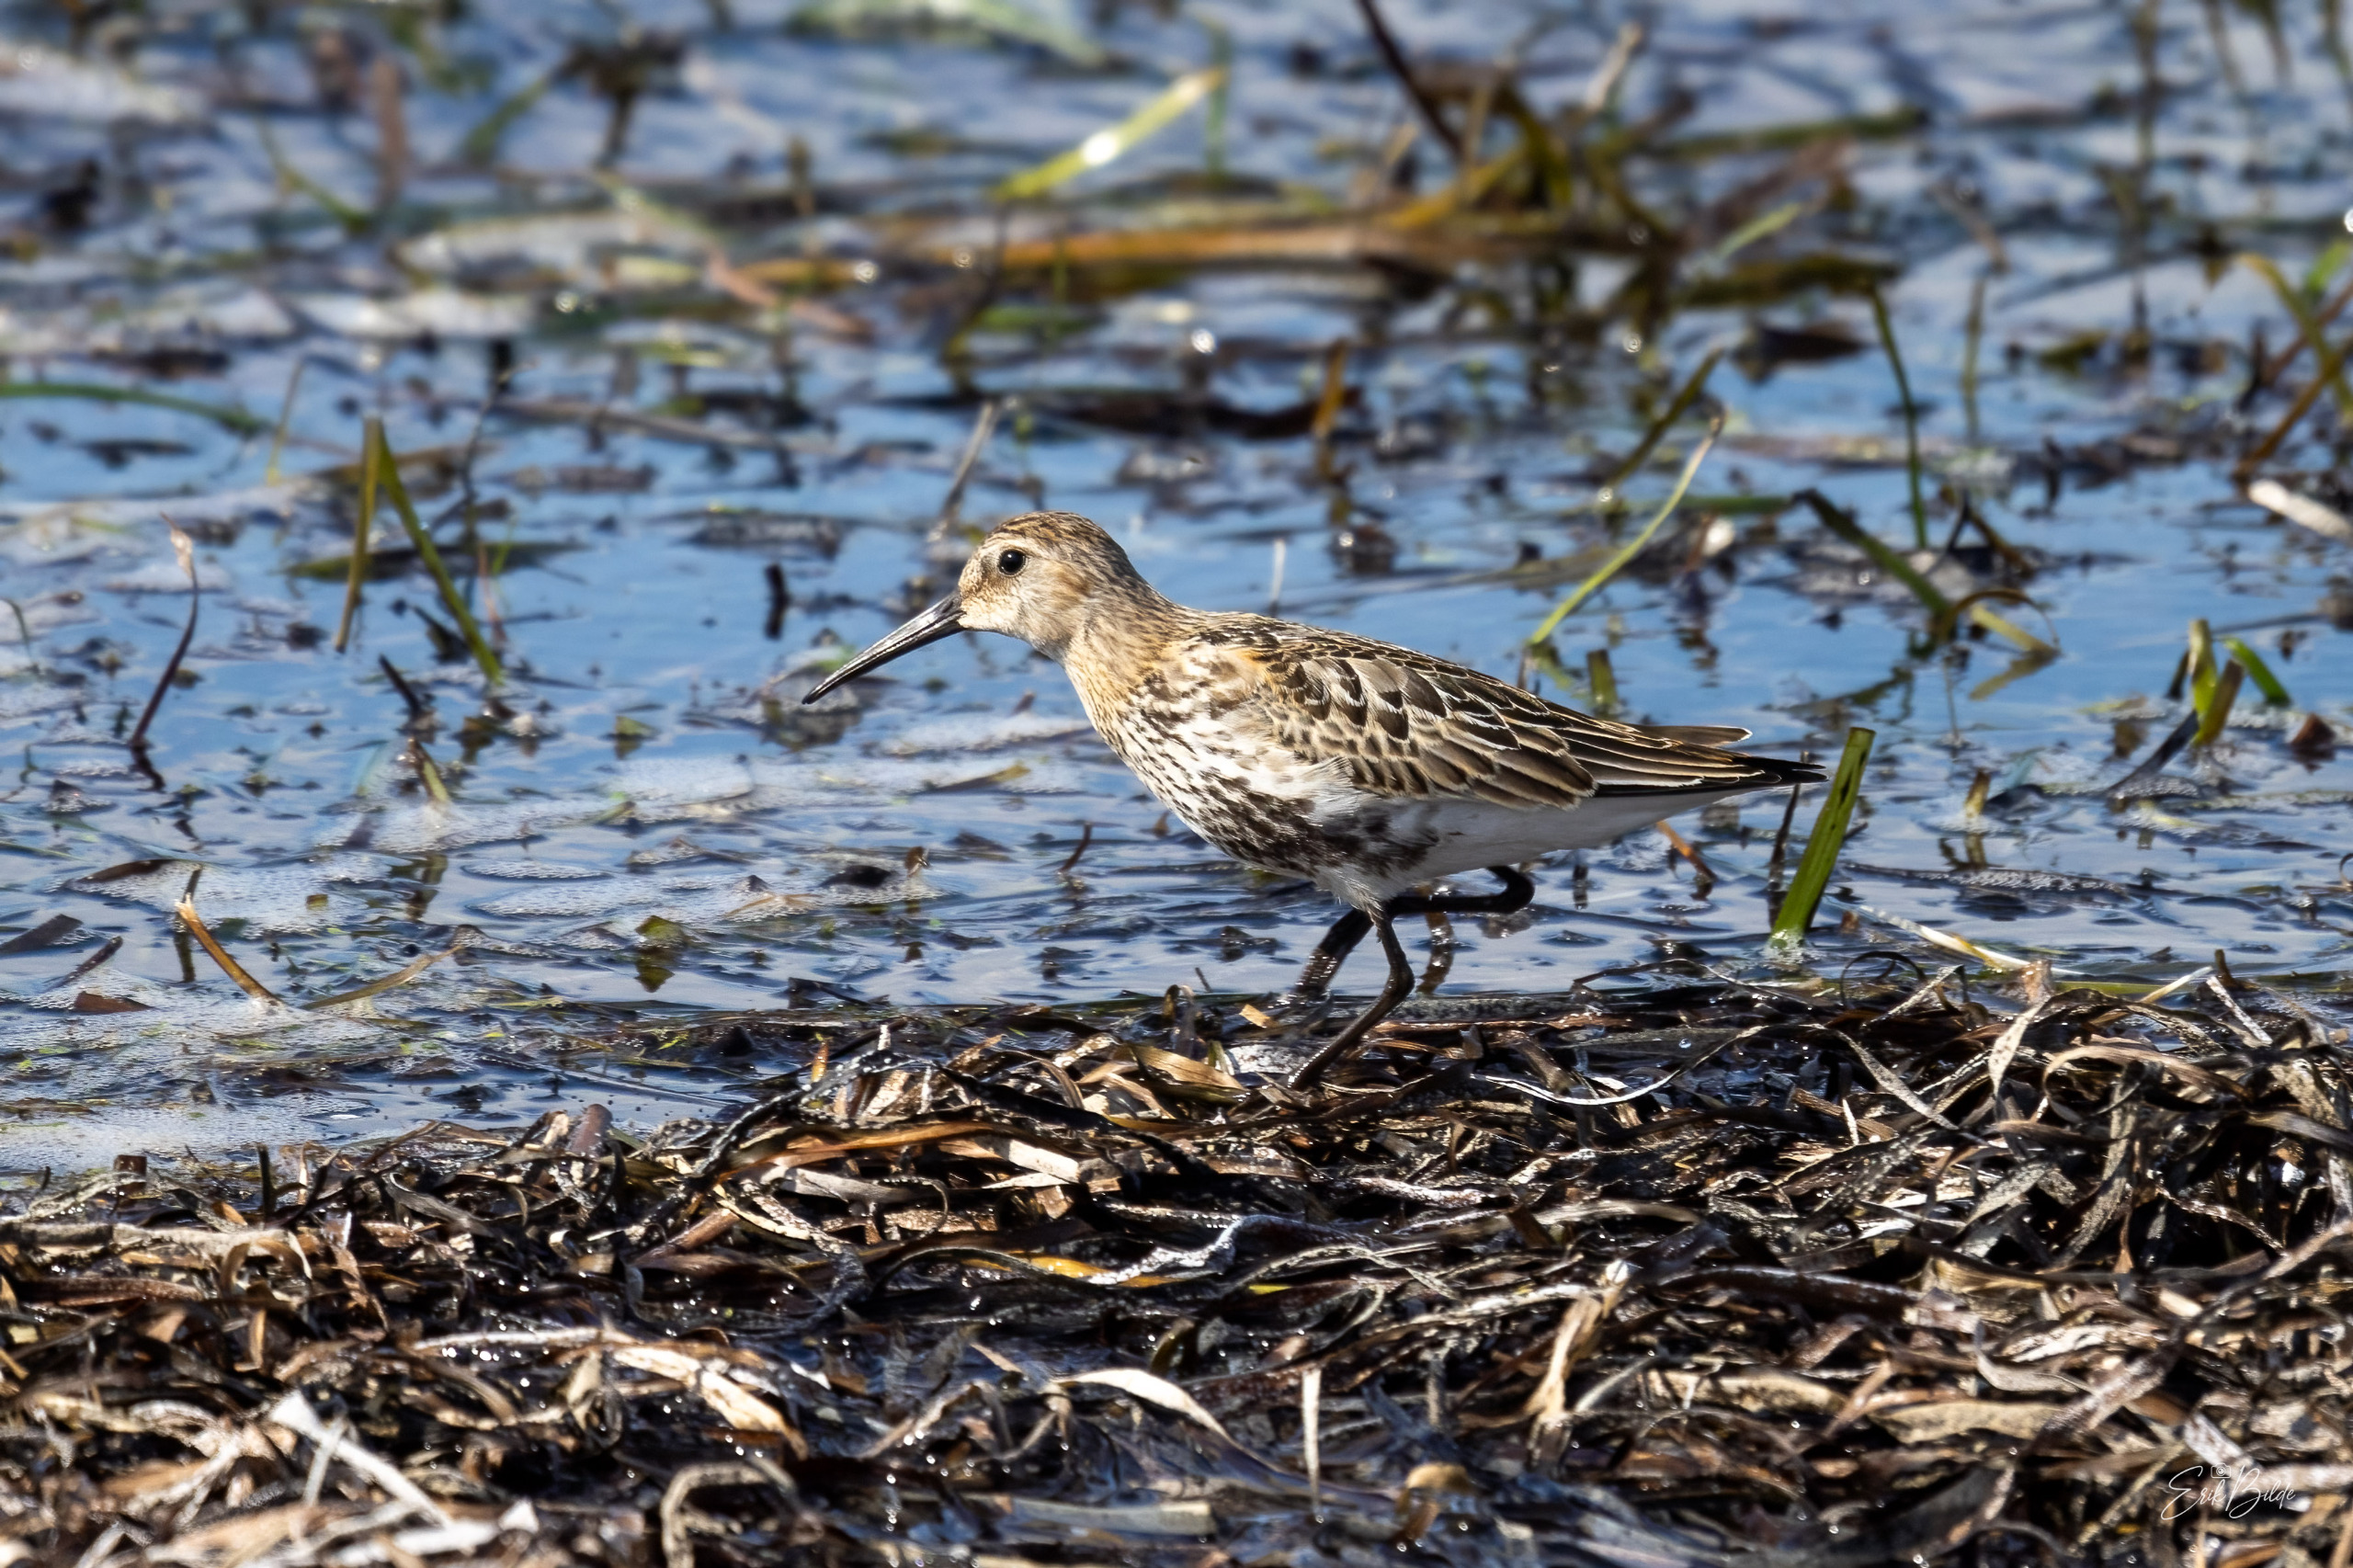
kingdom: Animalia
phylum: Chordata
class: Aves
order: Charadriiformes
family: Scolopacidae
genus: Calidris
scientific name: Calidris alpina
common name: Almindelig ryle
